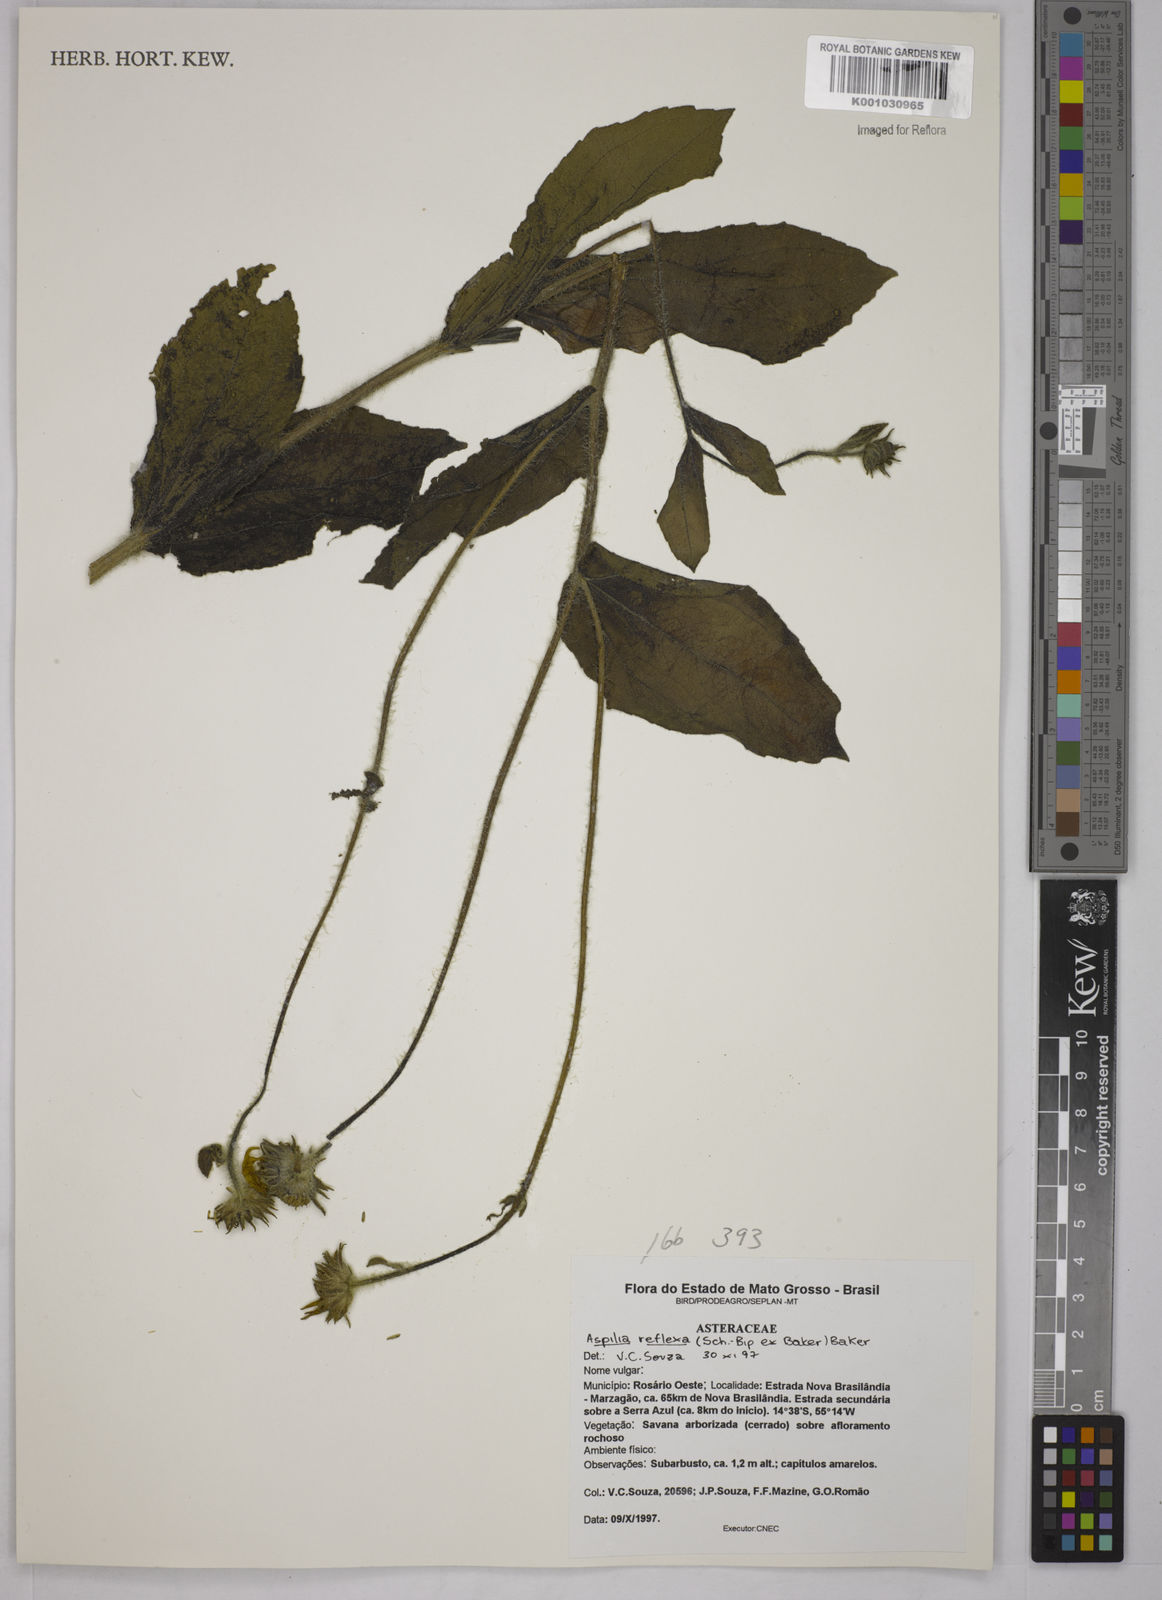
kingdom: Plantae
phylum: Tracheophyta
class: Magnoliopsida
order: Asterales
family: Asteraceae
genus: Wedelia
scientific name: Wedelia reflexa
